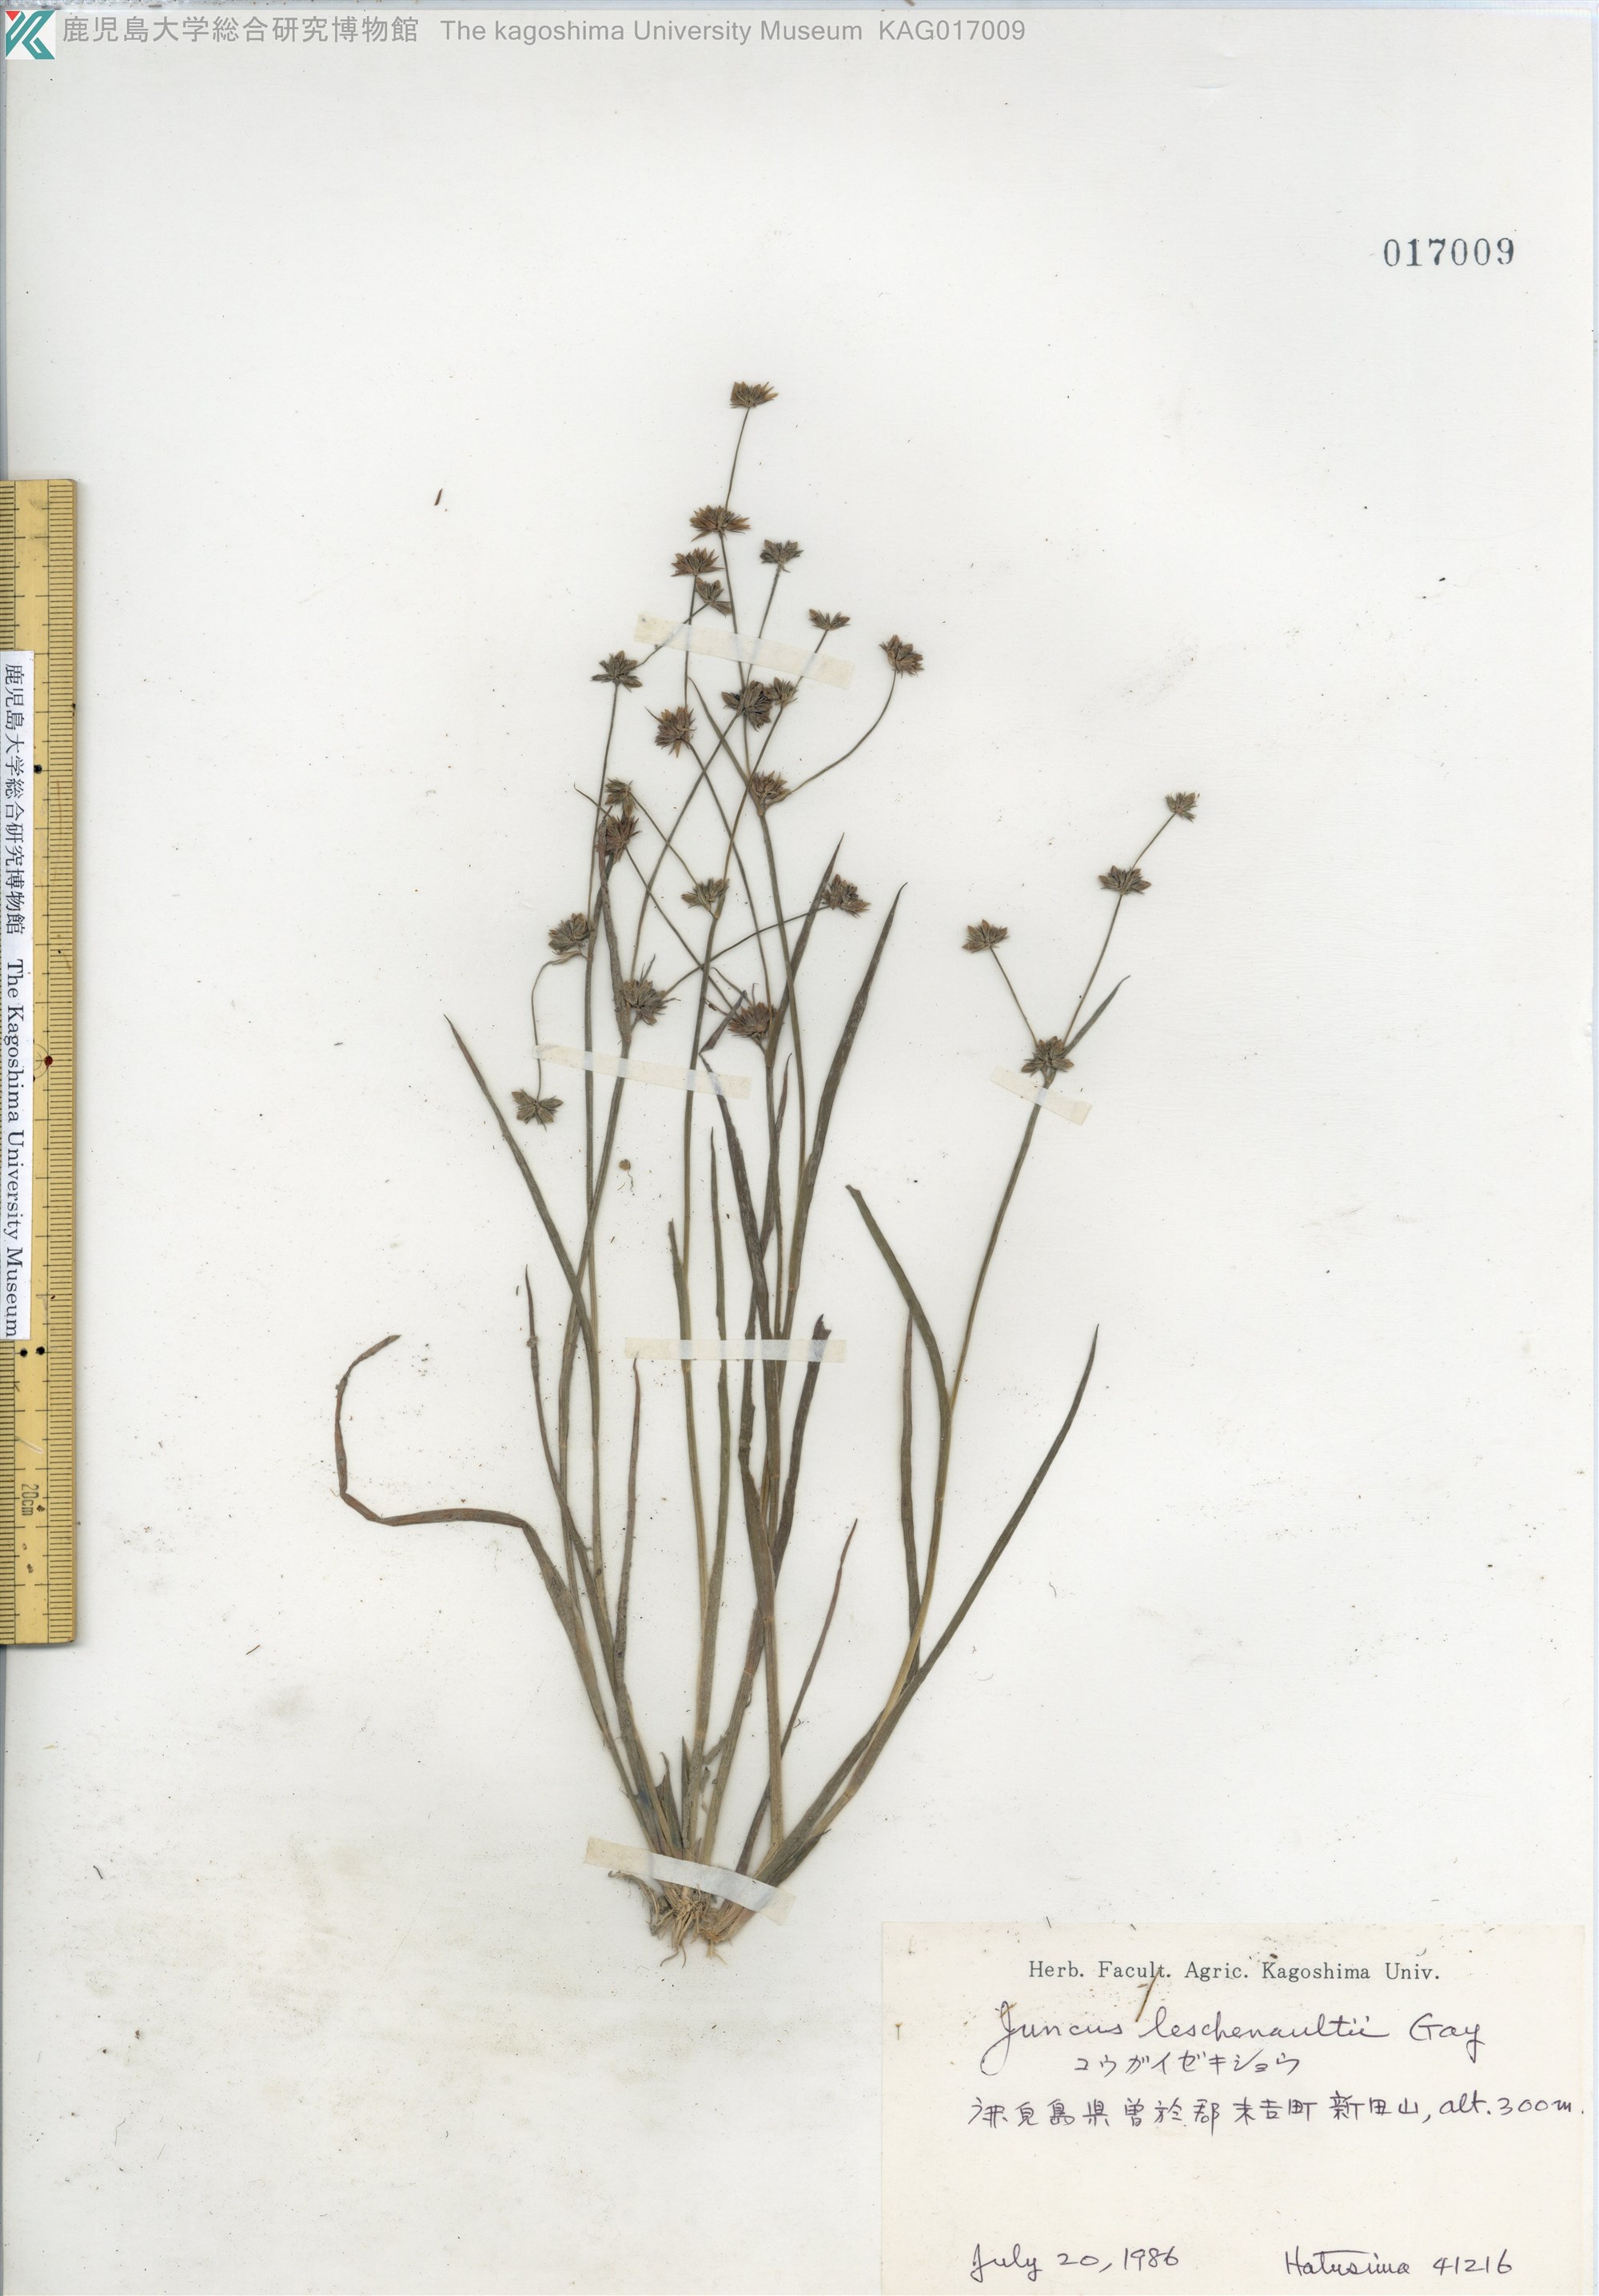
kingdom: Plantae
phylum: Tracheophyta
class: Liliopsida
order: Poales
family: Juncaceae
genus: Juncus
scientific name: Juncus prismatocarpus
